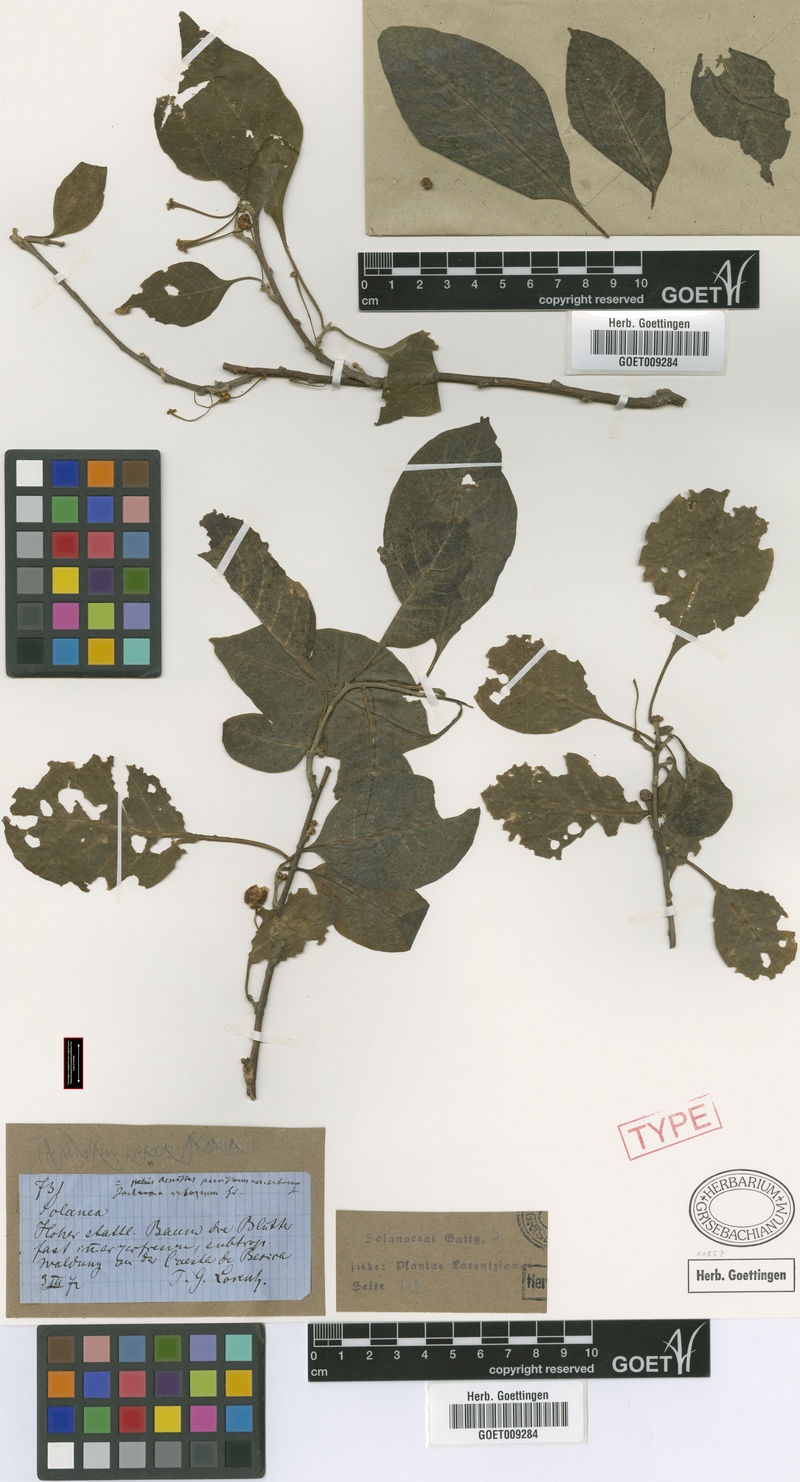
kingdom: Plantae
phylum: Tracheophyta
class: Magnoliopsida
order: Solanales
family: Solanaceae
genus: Vassobia
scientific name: Vassobia breviflora
